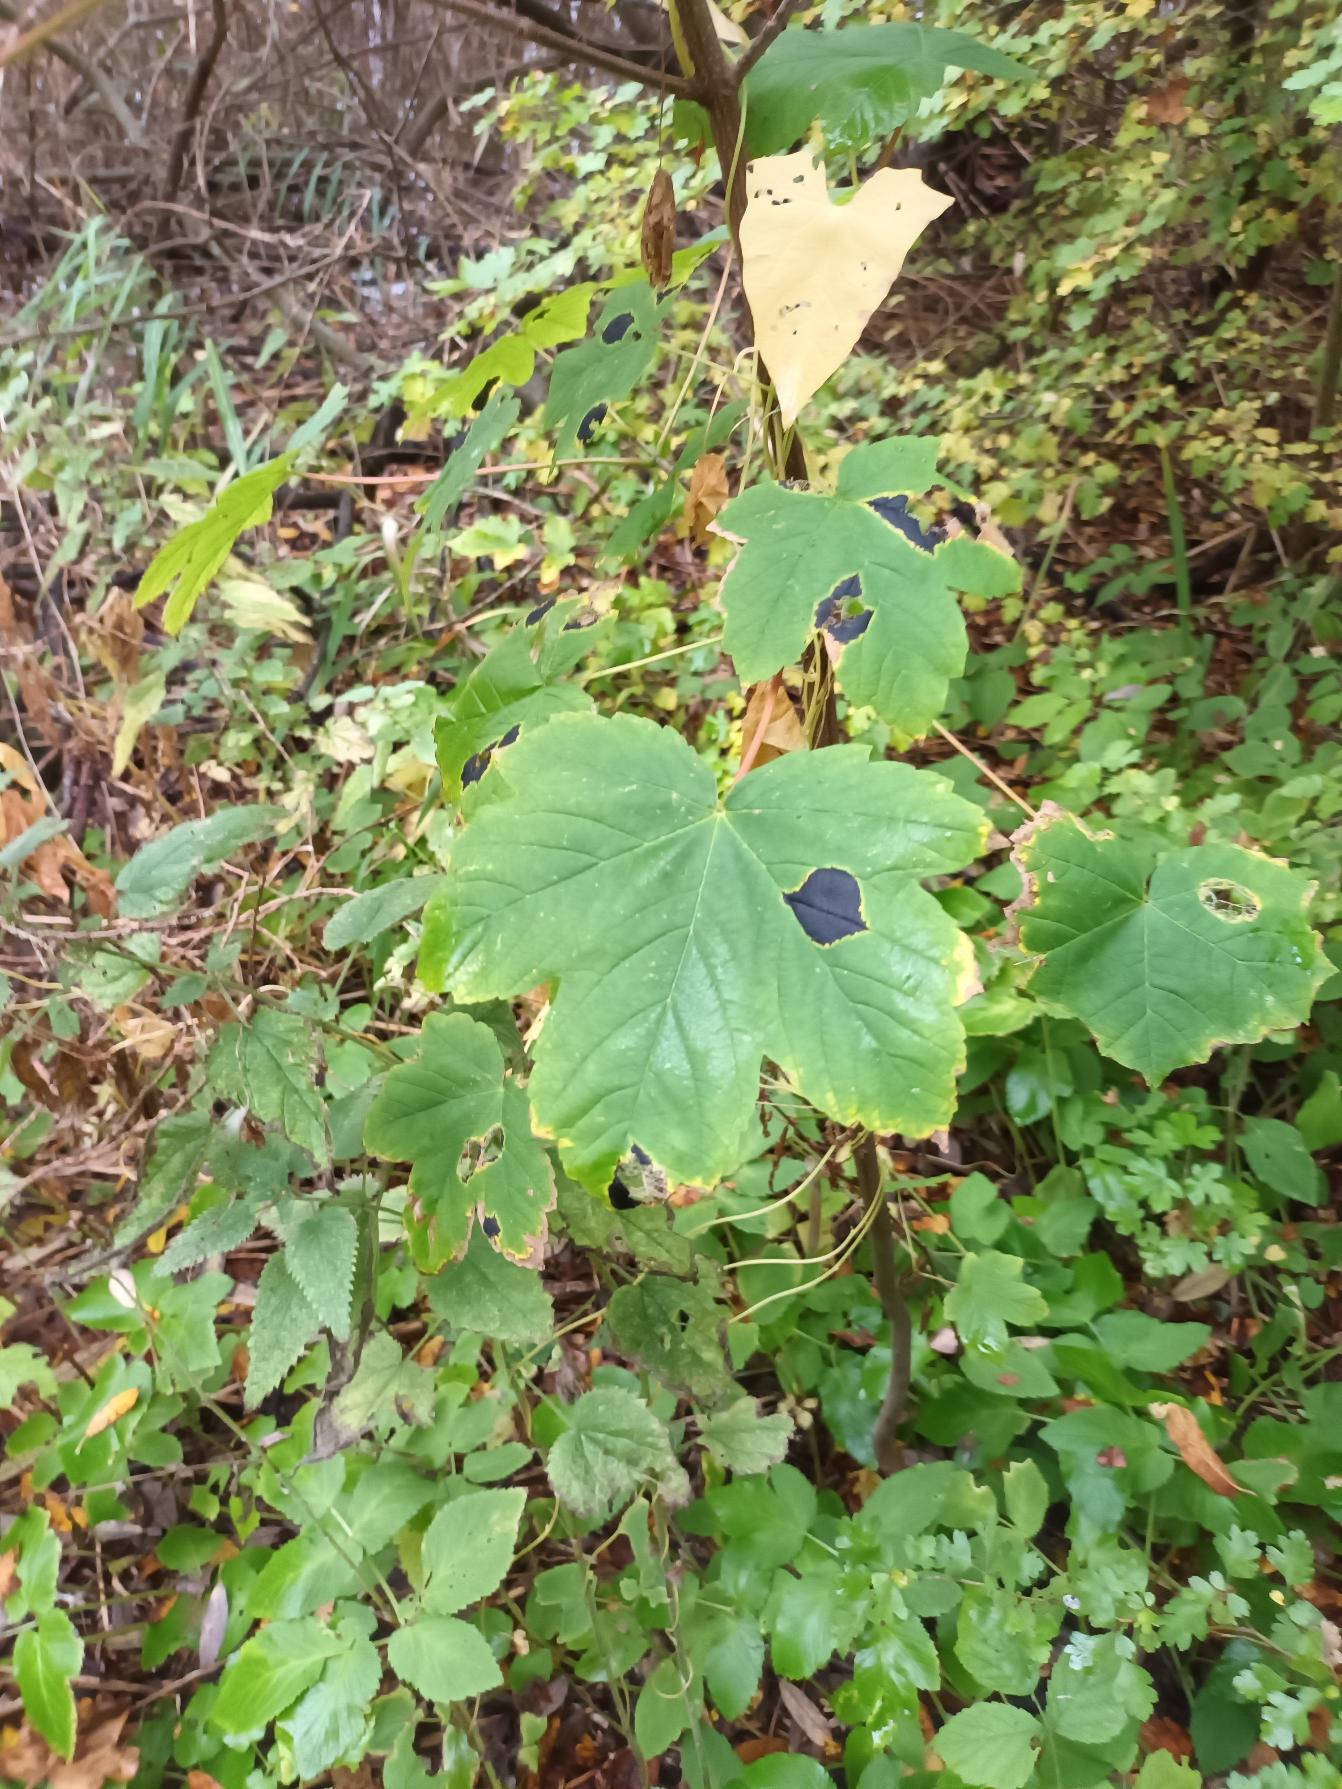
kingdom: Plantae
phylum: Tracheophyta
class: Magnoliopsida
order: Sapindales
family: Sapindaceae
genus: Acer
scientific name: Acer pseudoplatanus
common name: Ahorn
